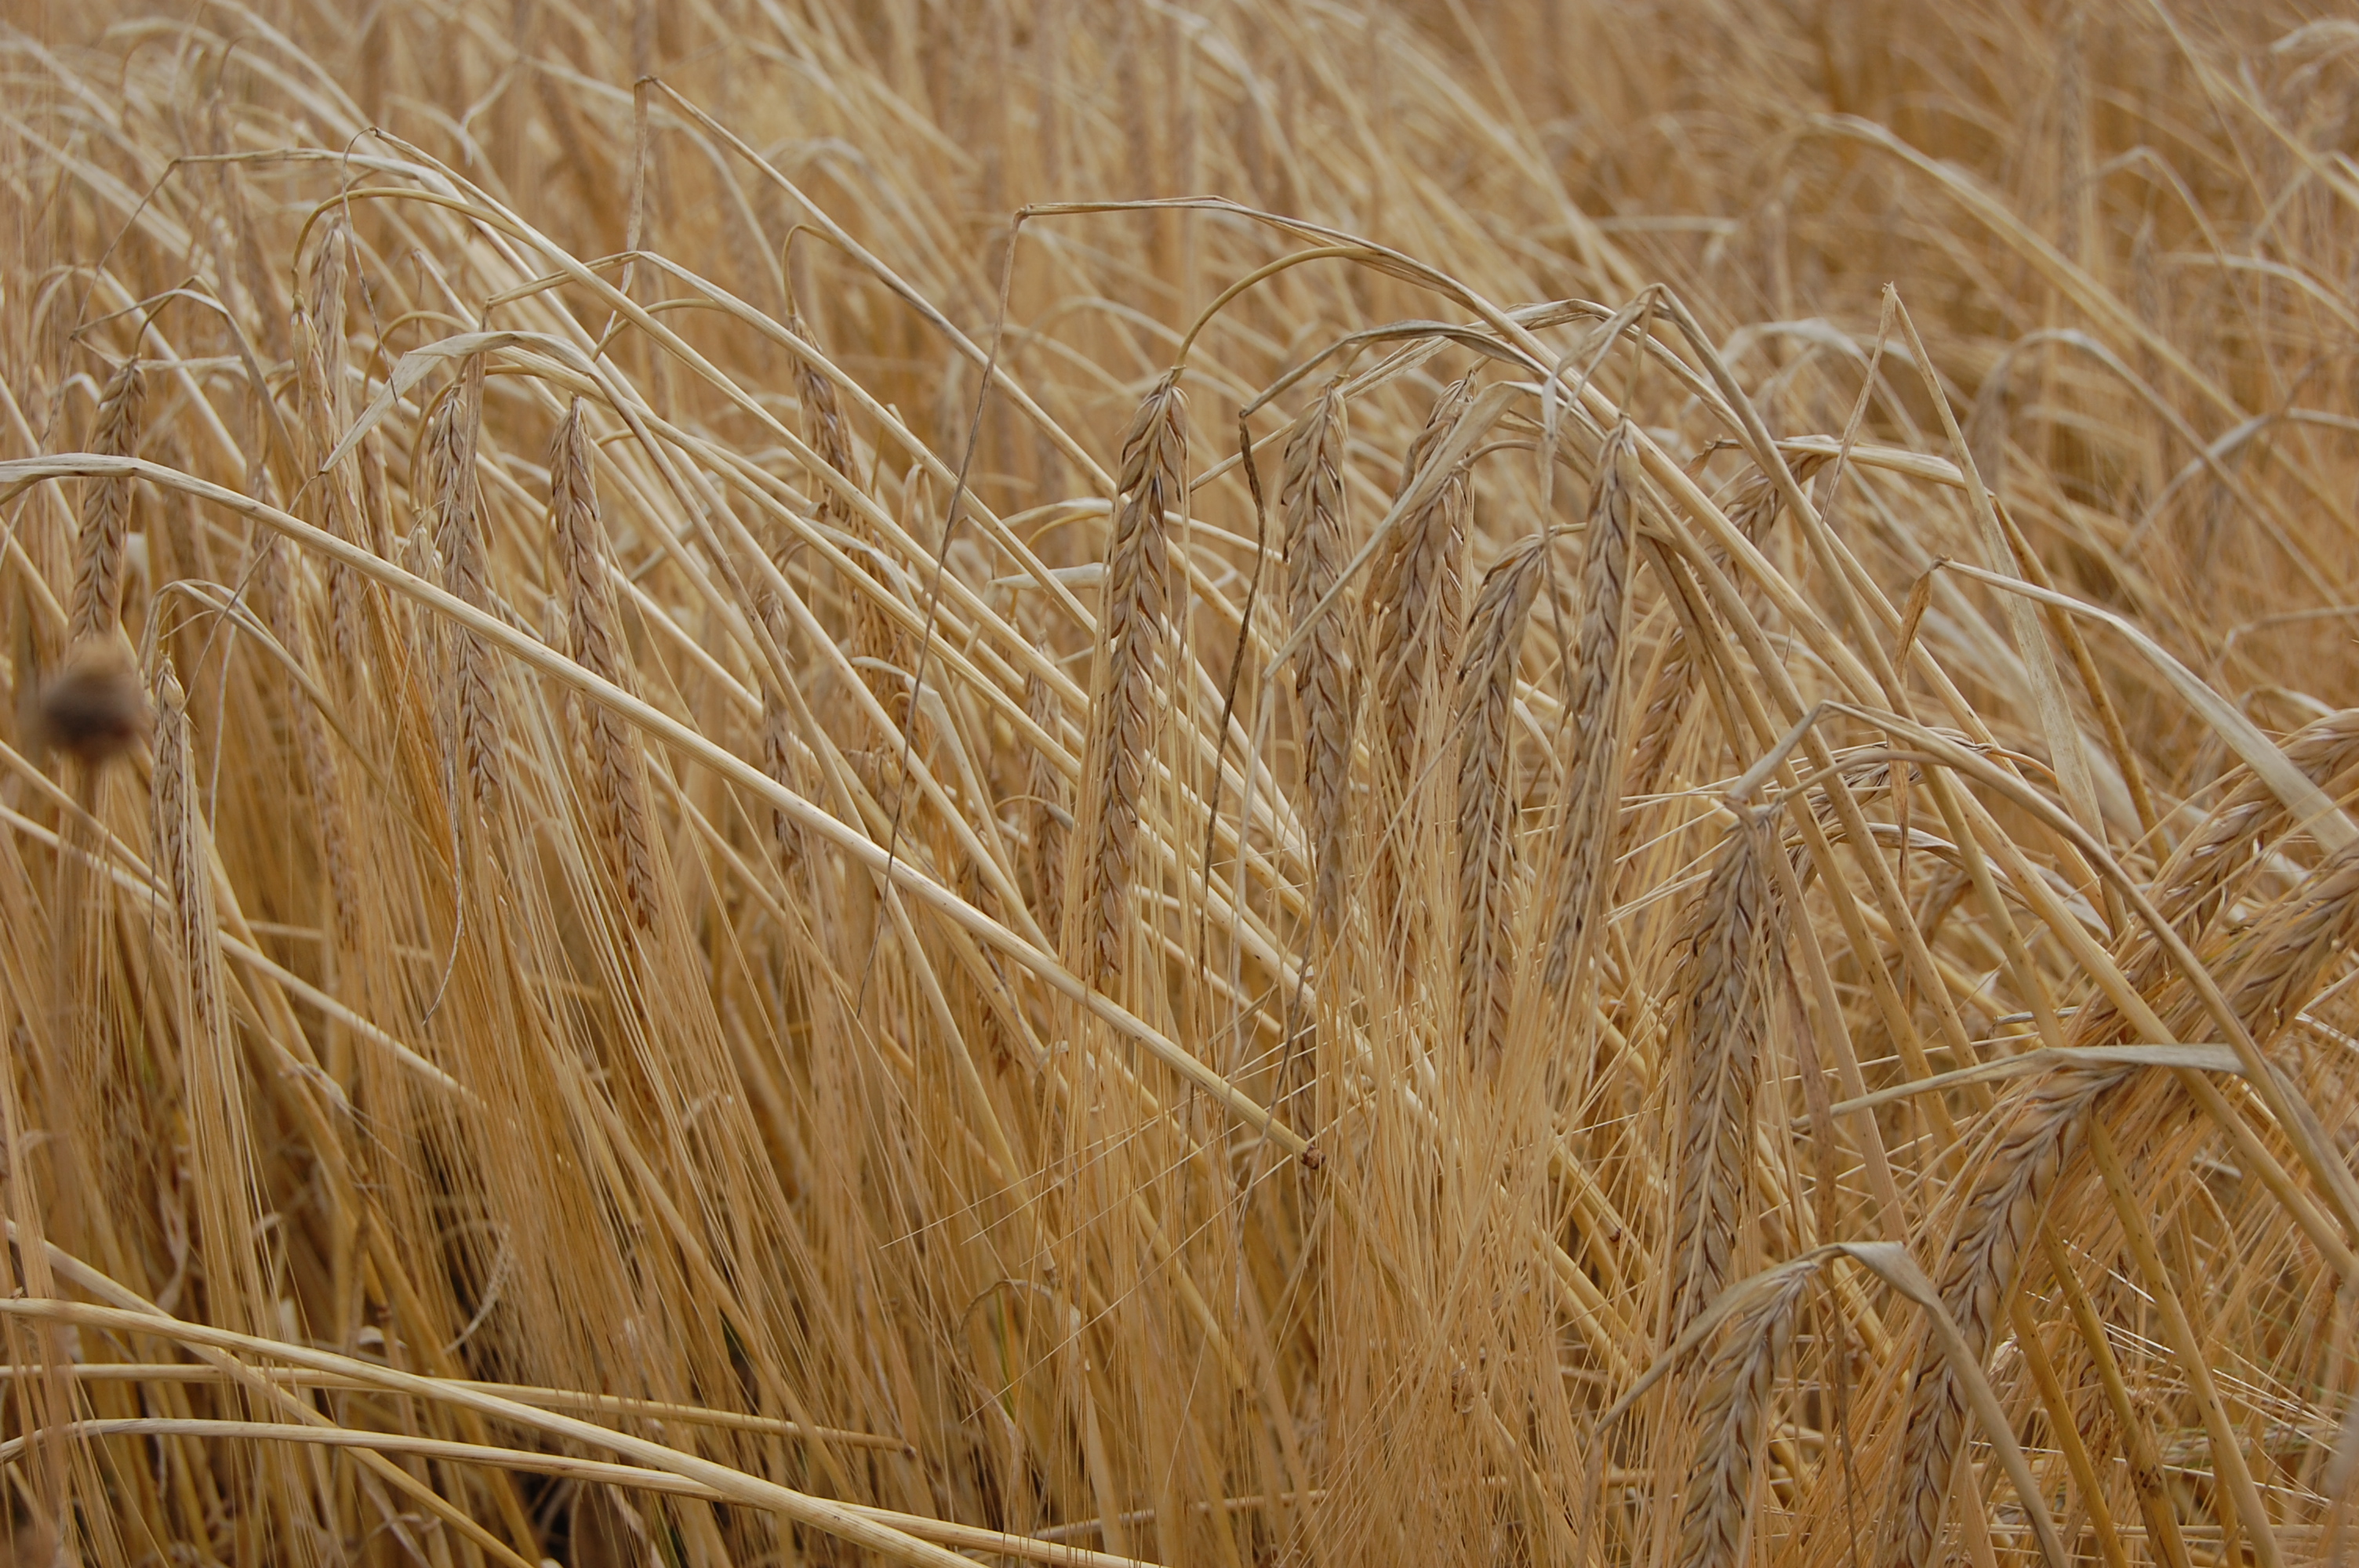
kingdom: Plantae
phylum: Tracheophyta
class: Liliopsida
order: Poales
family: Poaceae
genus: Hordeum
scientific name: Hordeum vulgare
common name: Common barley
